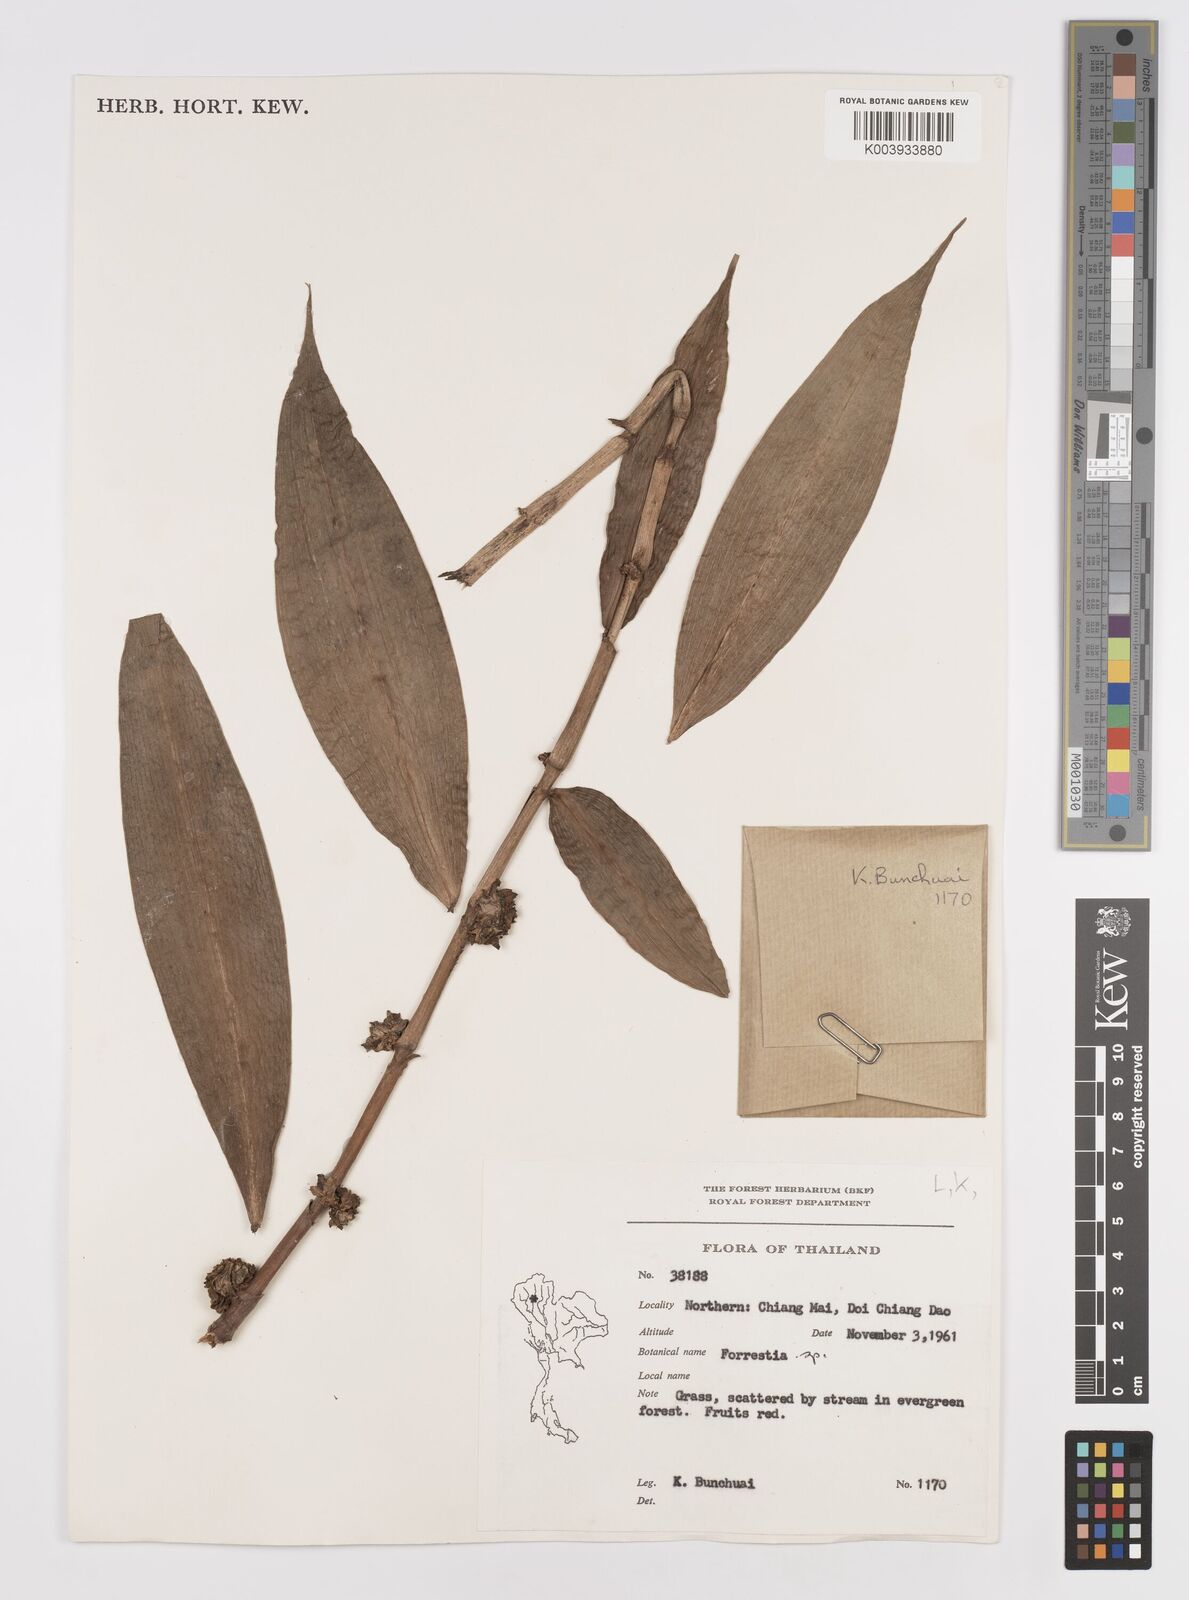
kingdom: Plantae
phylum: Tracheophyta
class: Liliopsida
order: Commelinales
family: Commelinaceae
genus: Amischotolype
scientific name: Amischotolype
